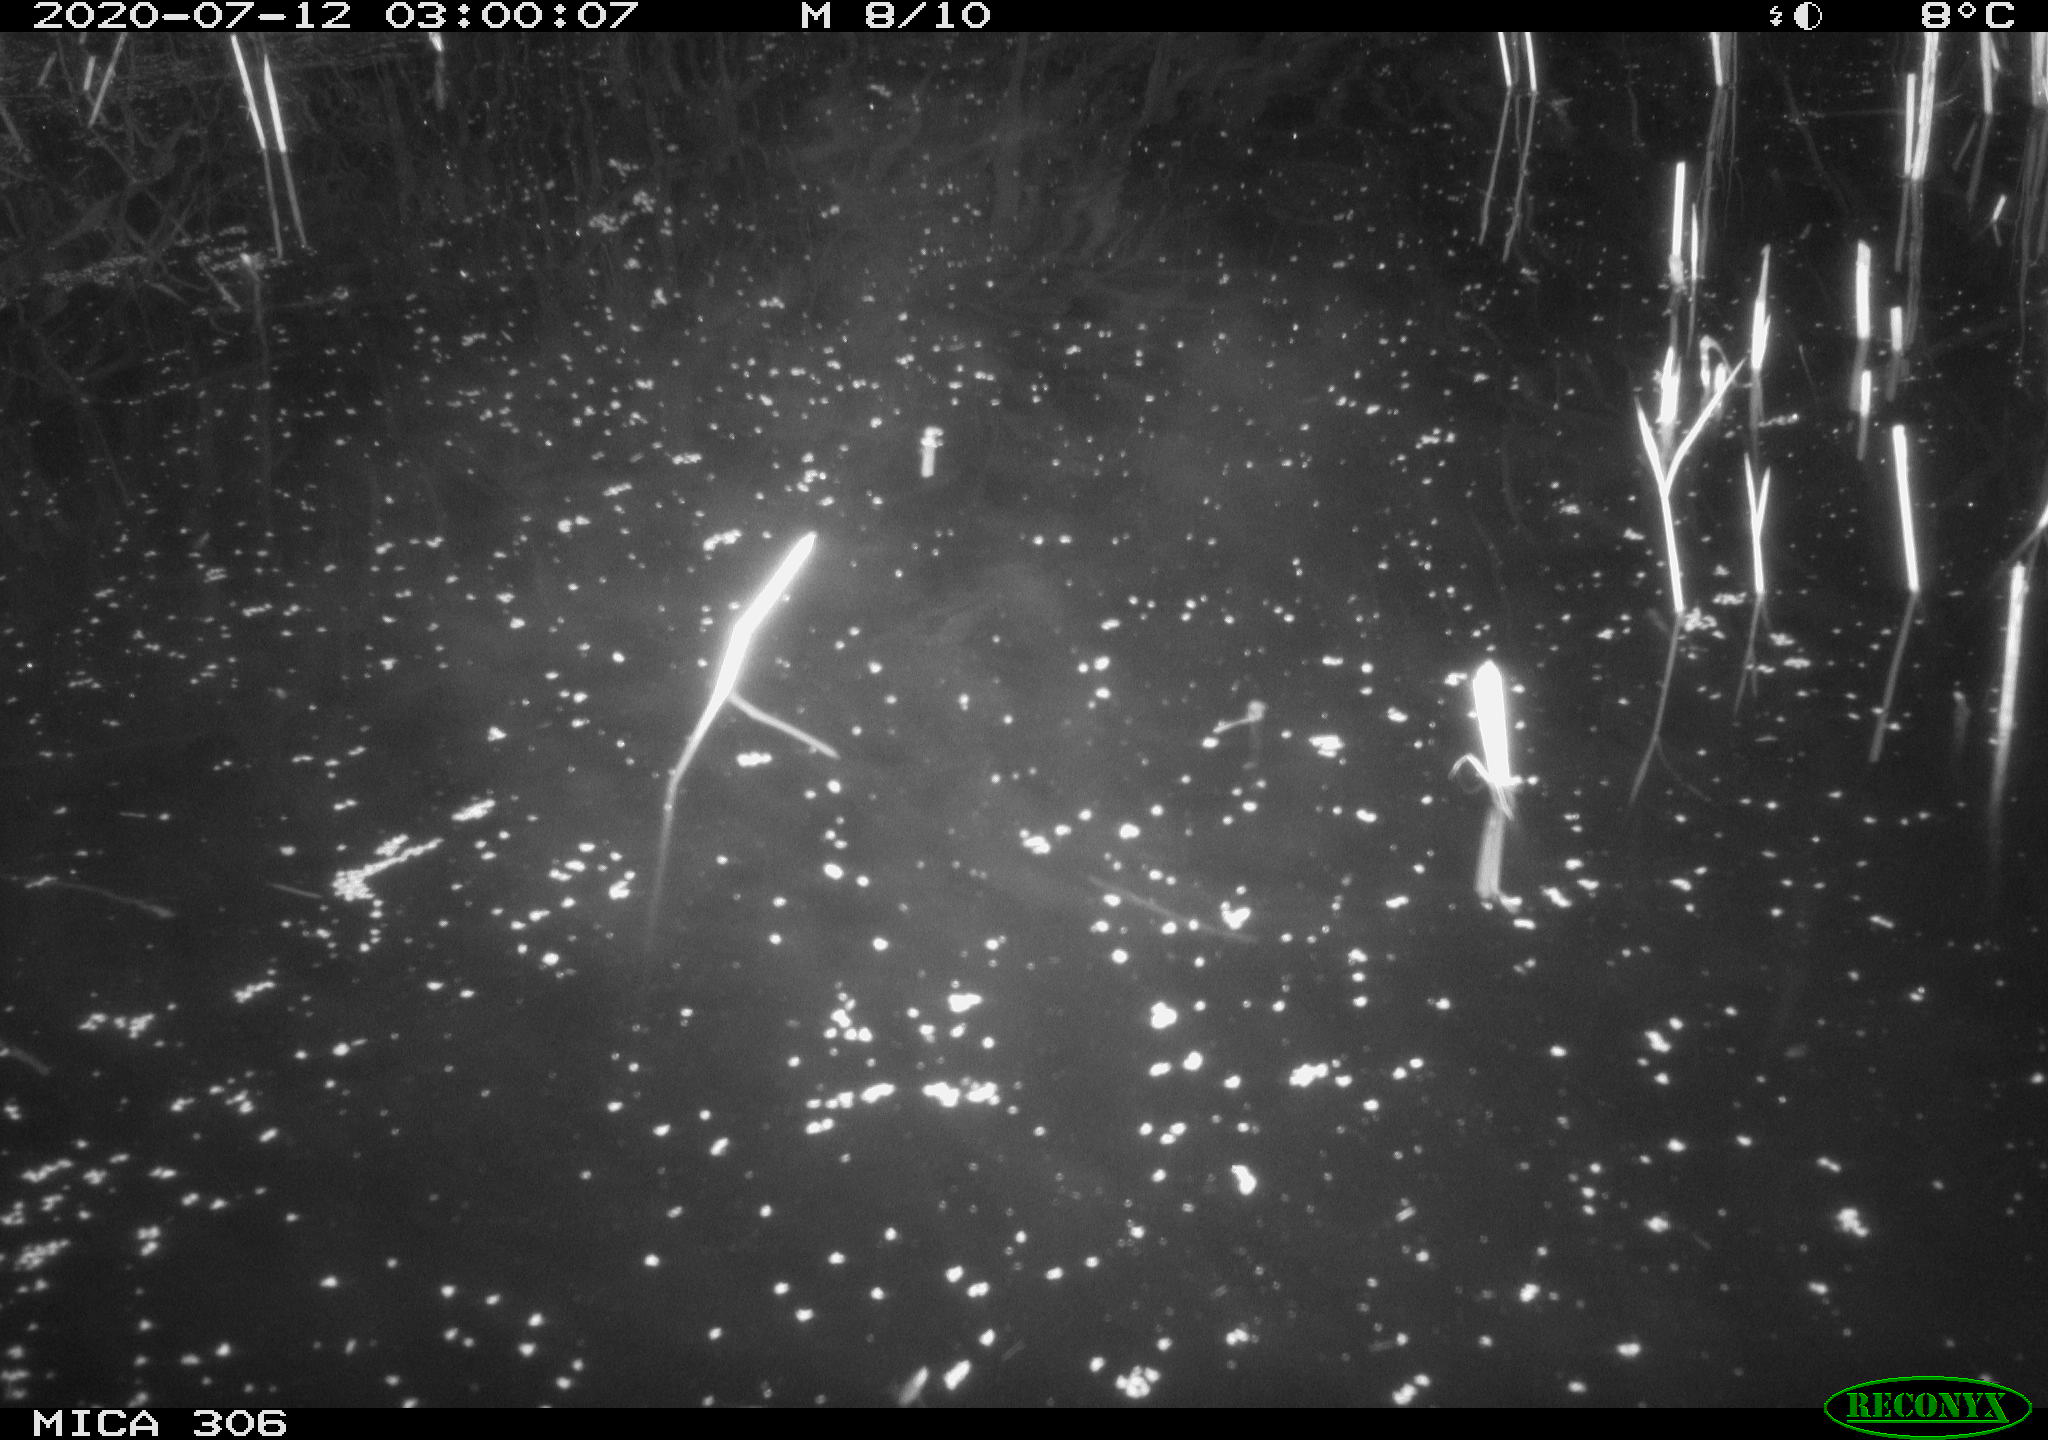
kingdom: Animalia
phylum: Chordata
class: Mammalia
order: Rodentia
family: Cricetidae
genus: Ondatra
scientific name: Ondatra zibethicus
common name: Muskrat
